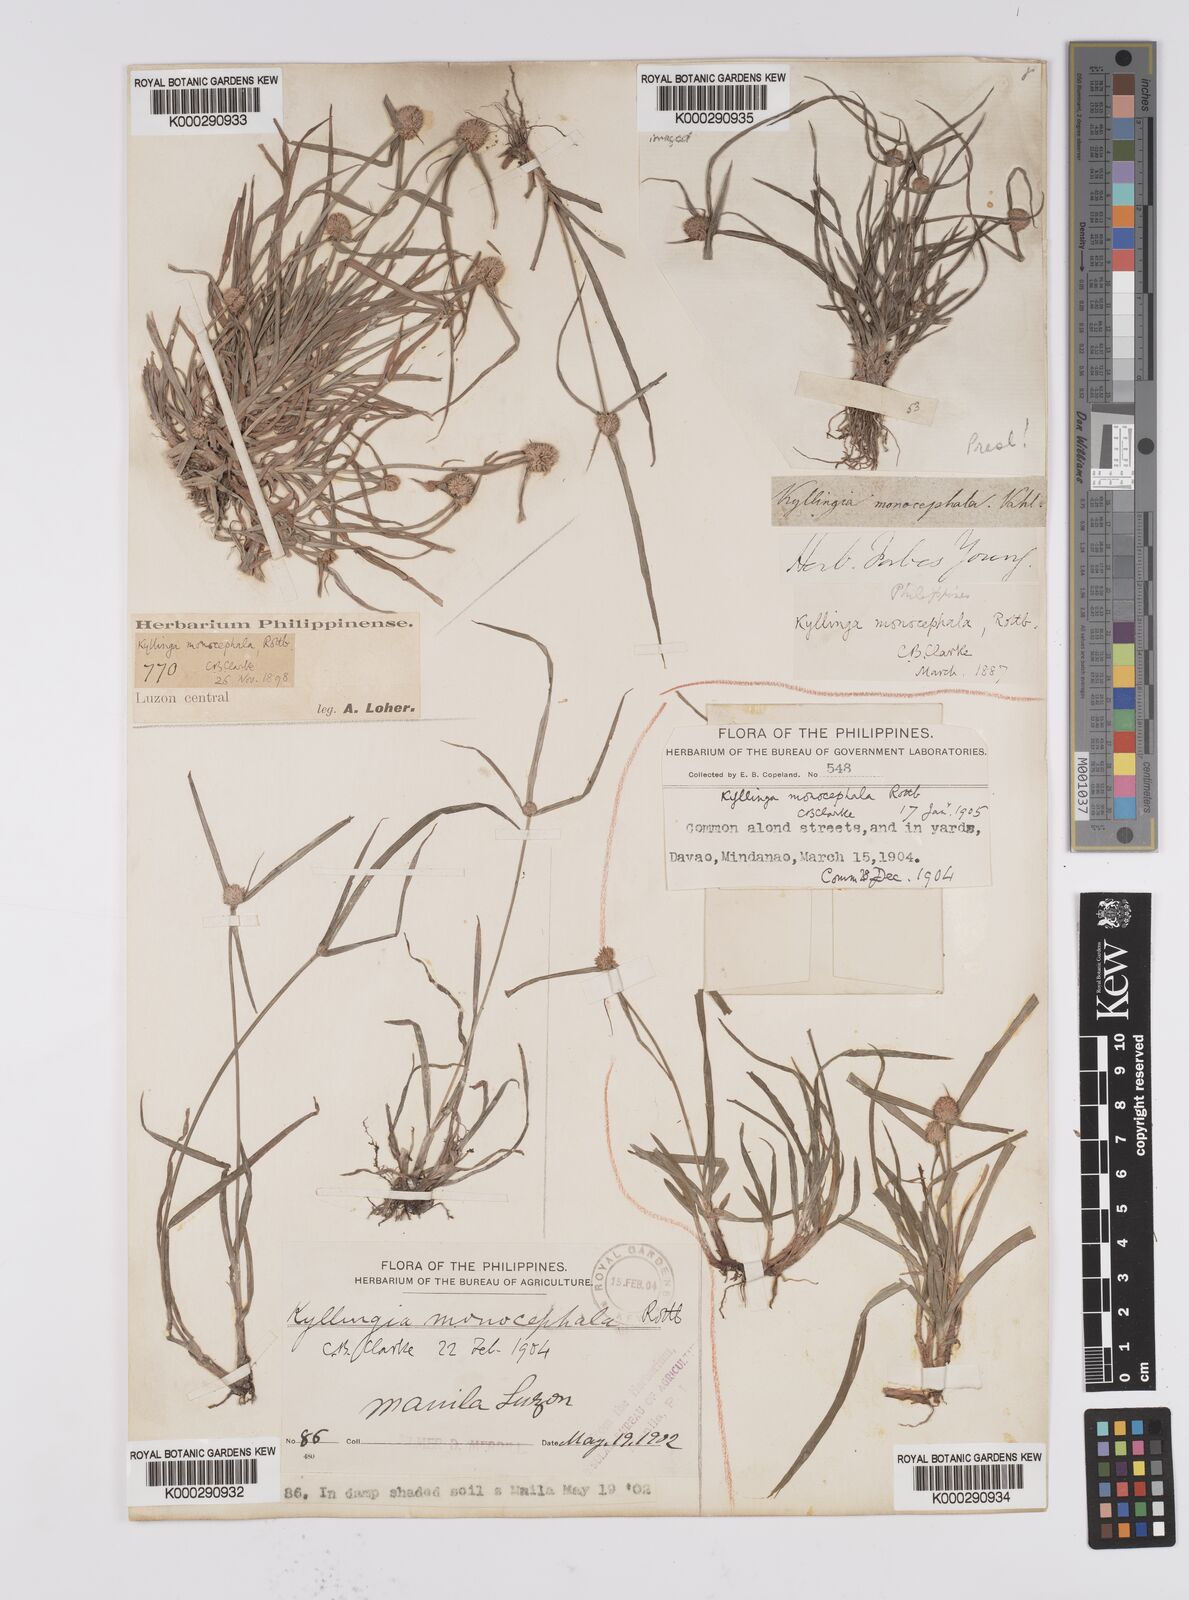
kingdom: Plantae
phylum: Tracheophyta
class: Liliopsida
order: Poales
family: Cyperaceae
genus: Cyperus
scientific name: Cyperus mindorensis
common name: Flatsedge
